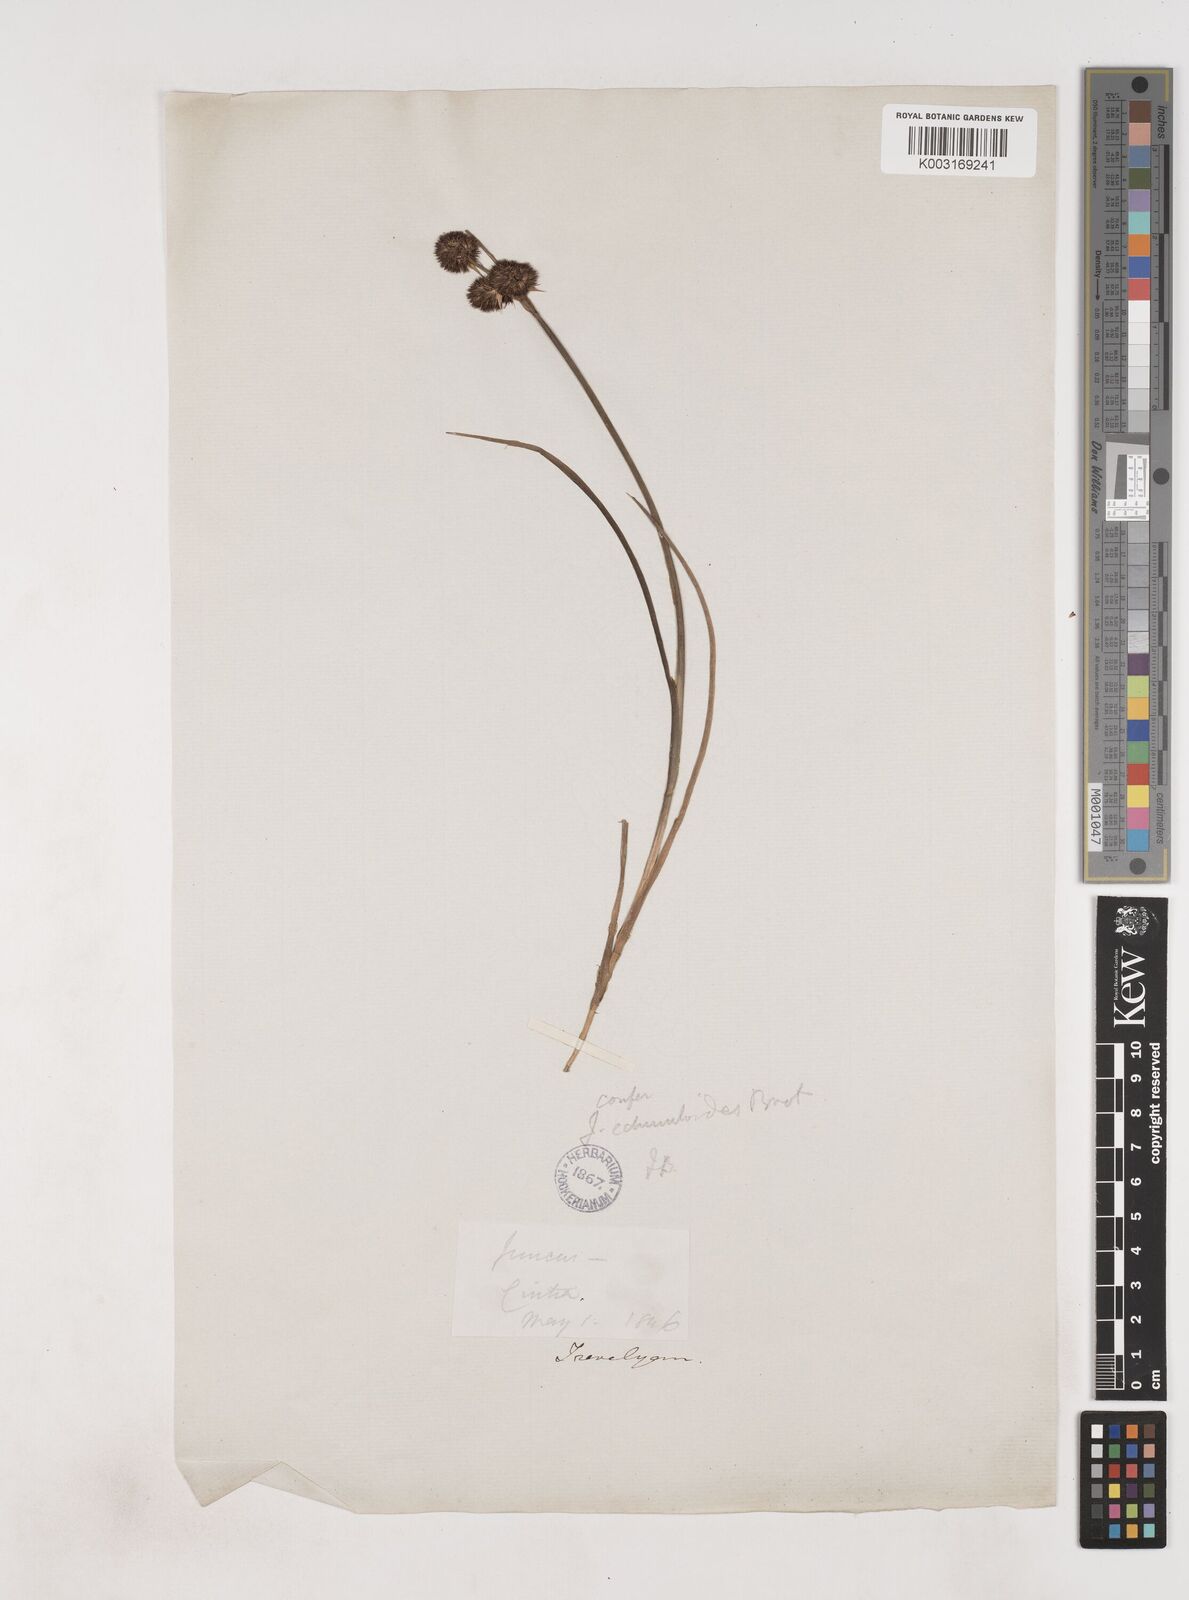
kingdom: Plantae
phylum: Tracheophyta
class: Liliopsida
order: Poales
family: Juncaceae
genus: Juncus
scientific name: Juncus valvatus
